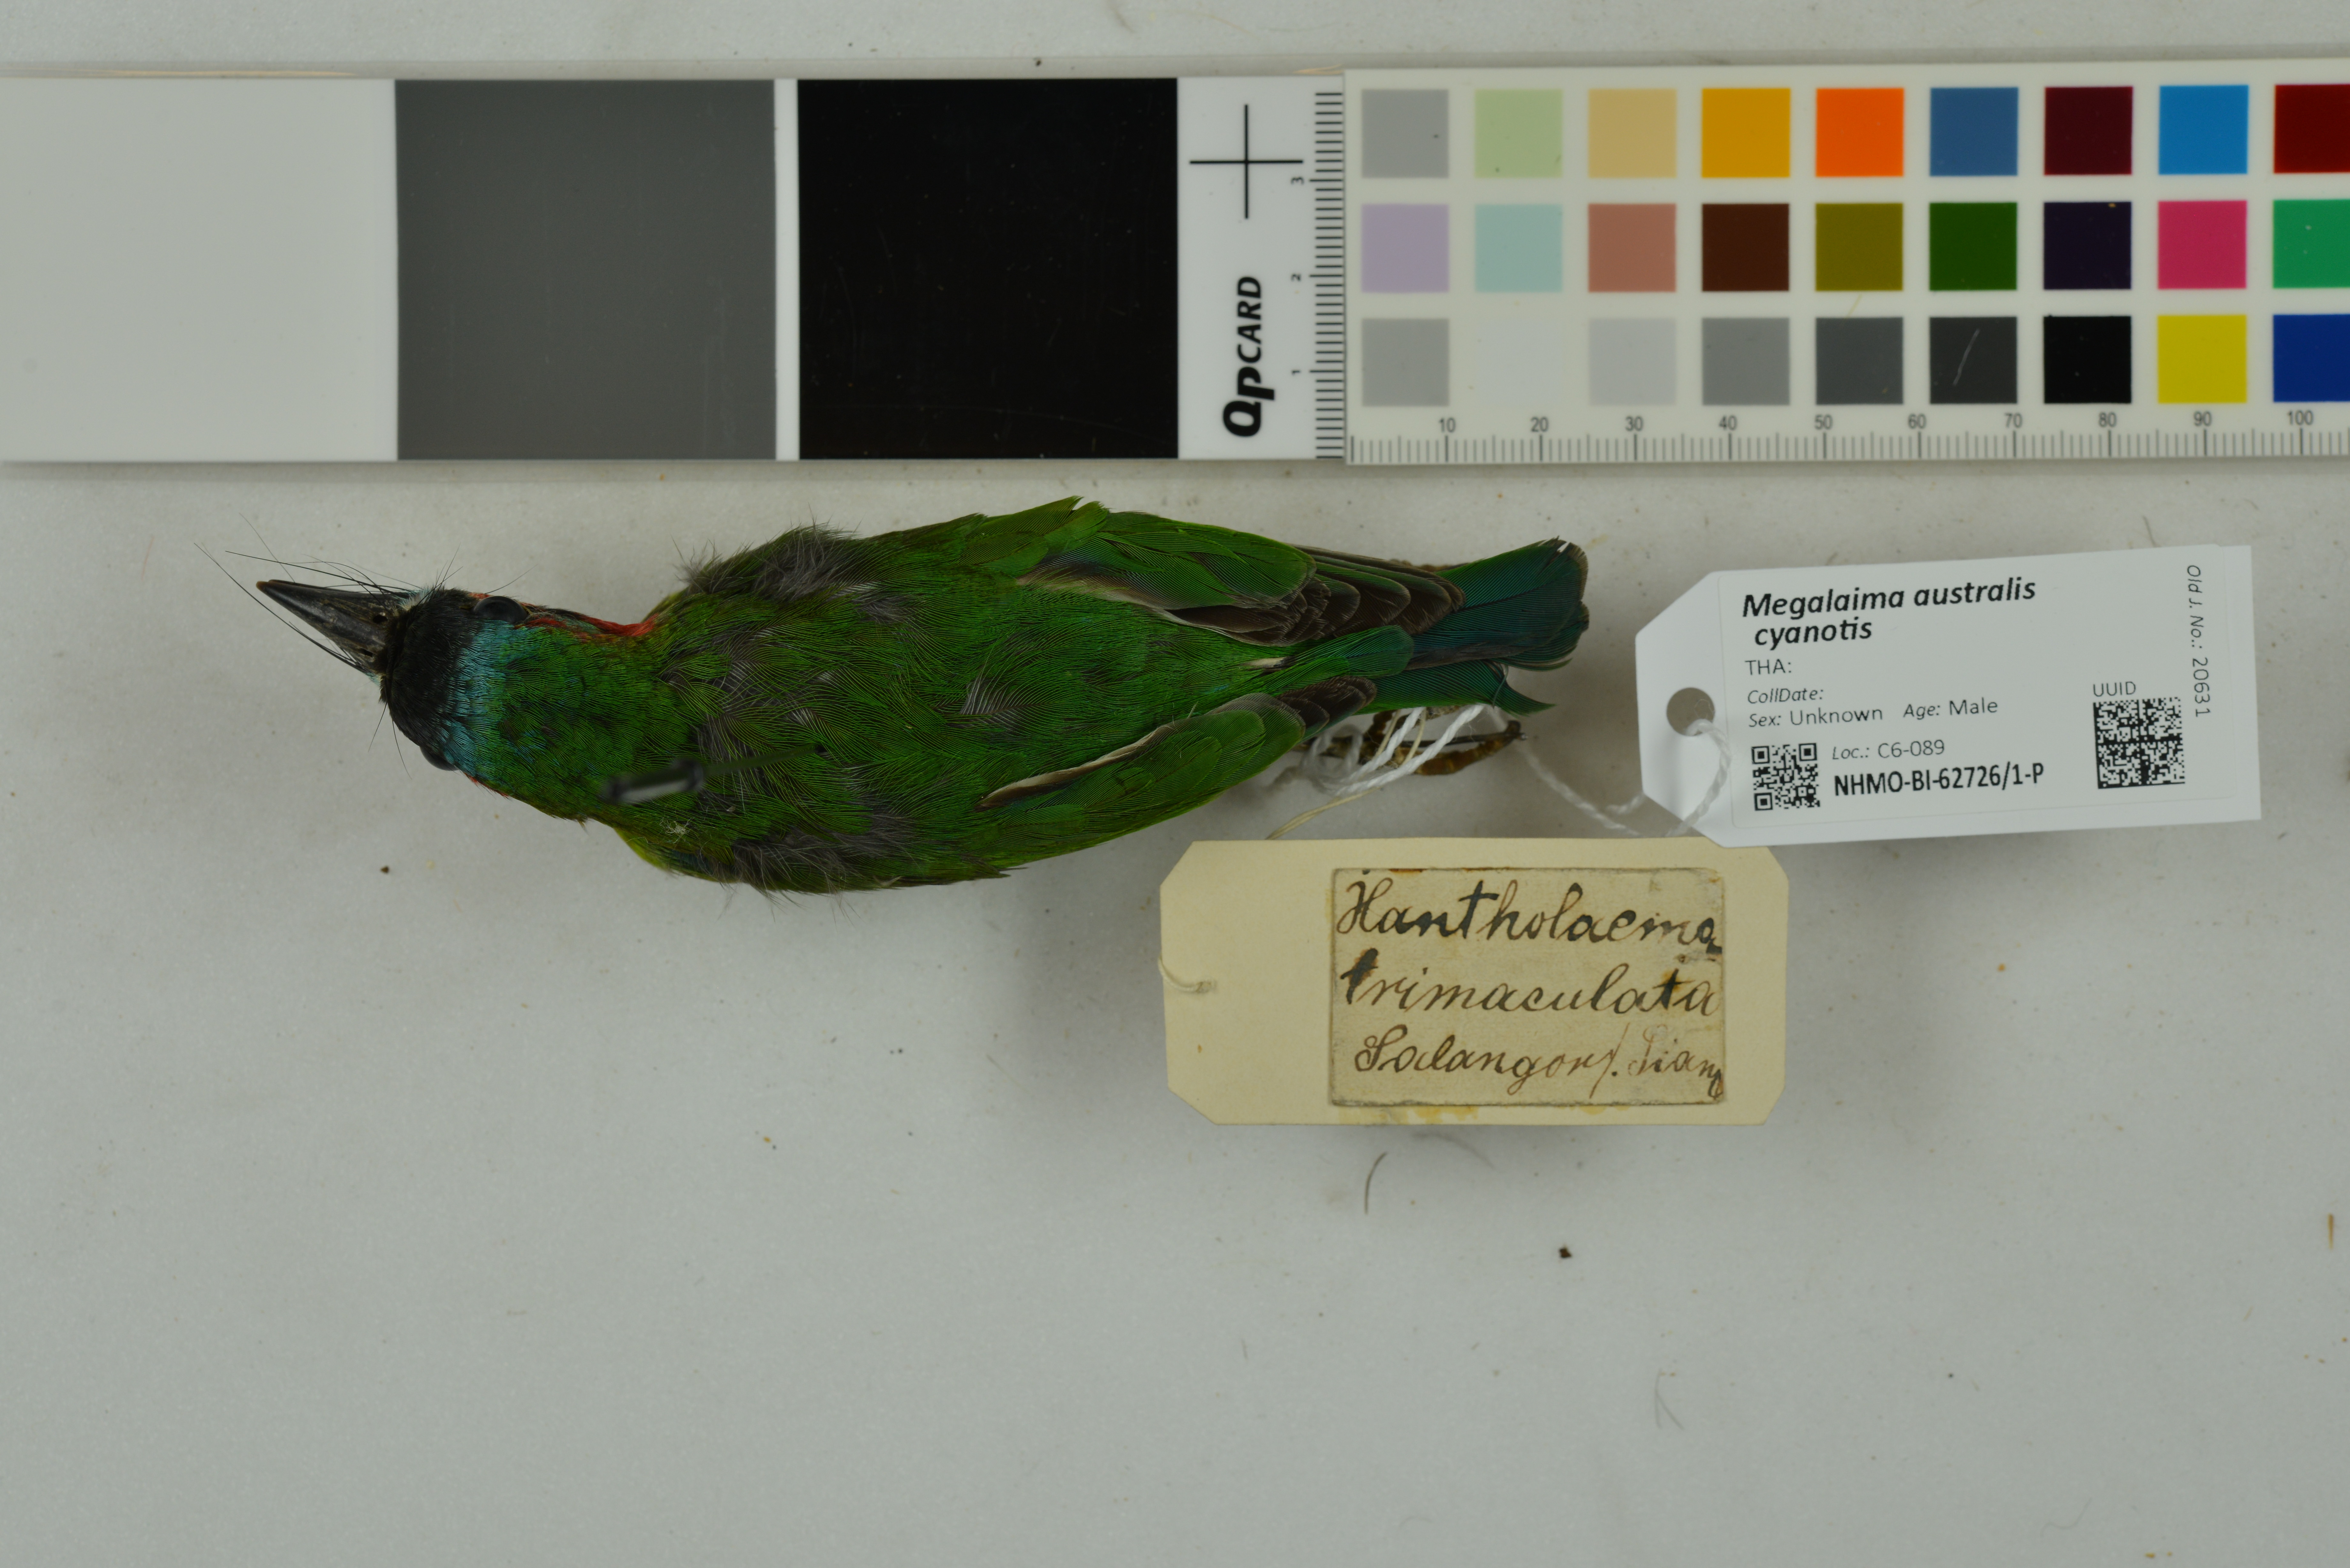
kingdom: Animalia
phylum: Chordata
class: Aves
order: Piciformes
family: Megalaimidae
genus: Psilopogon
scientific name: Psilopogon duvaucelii
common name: Blue-eared barbet
